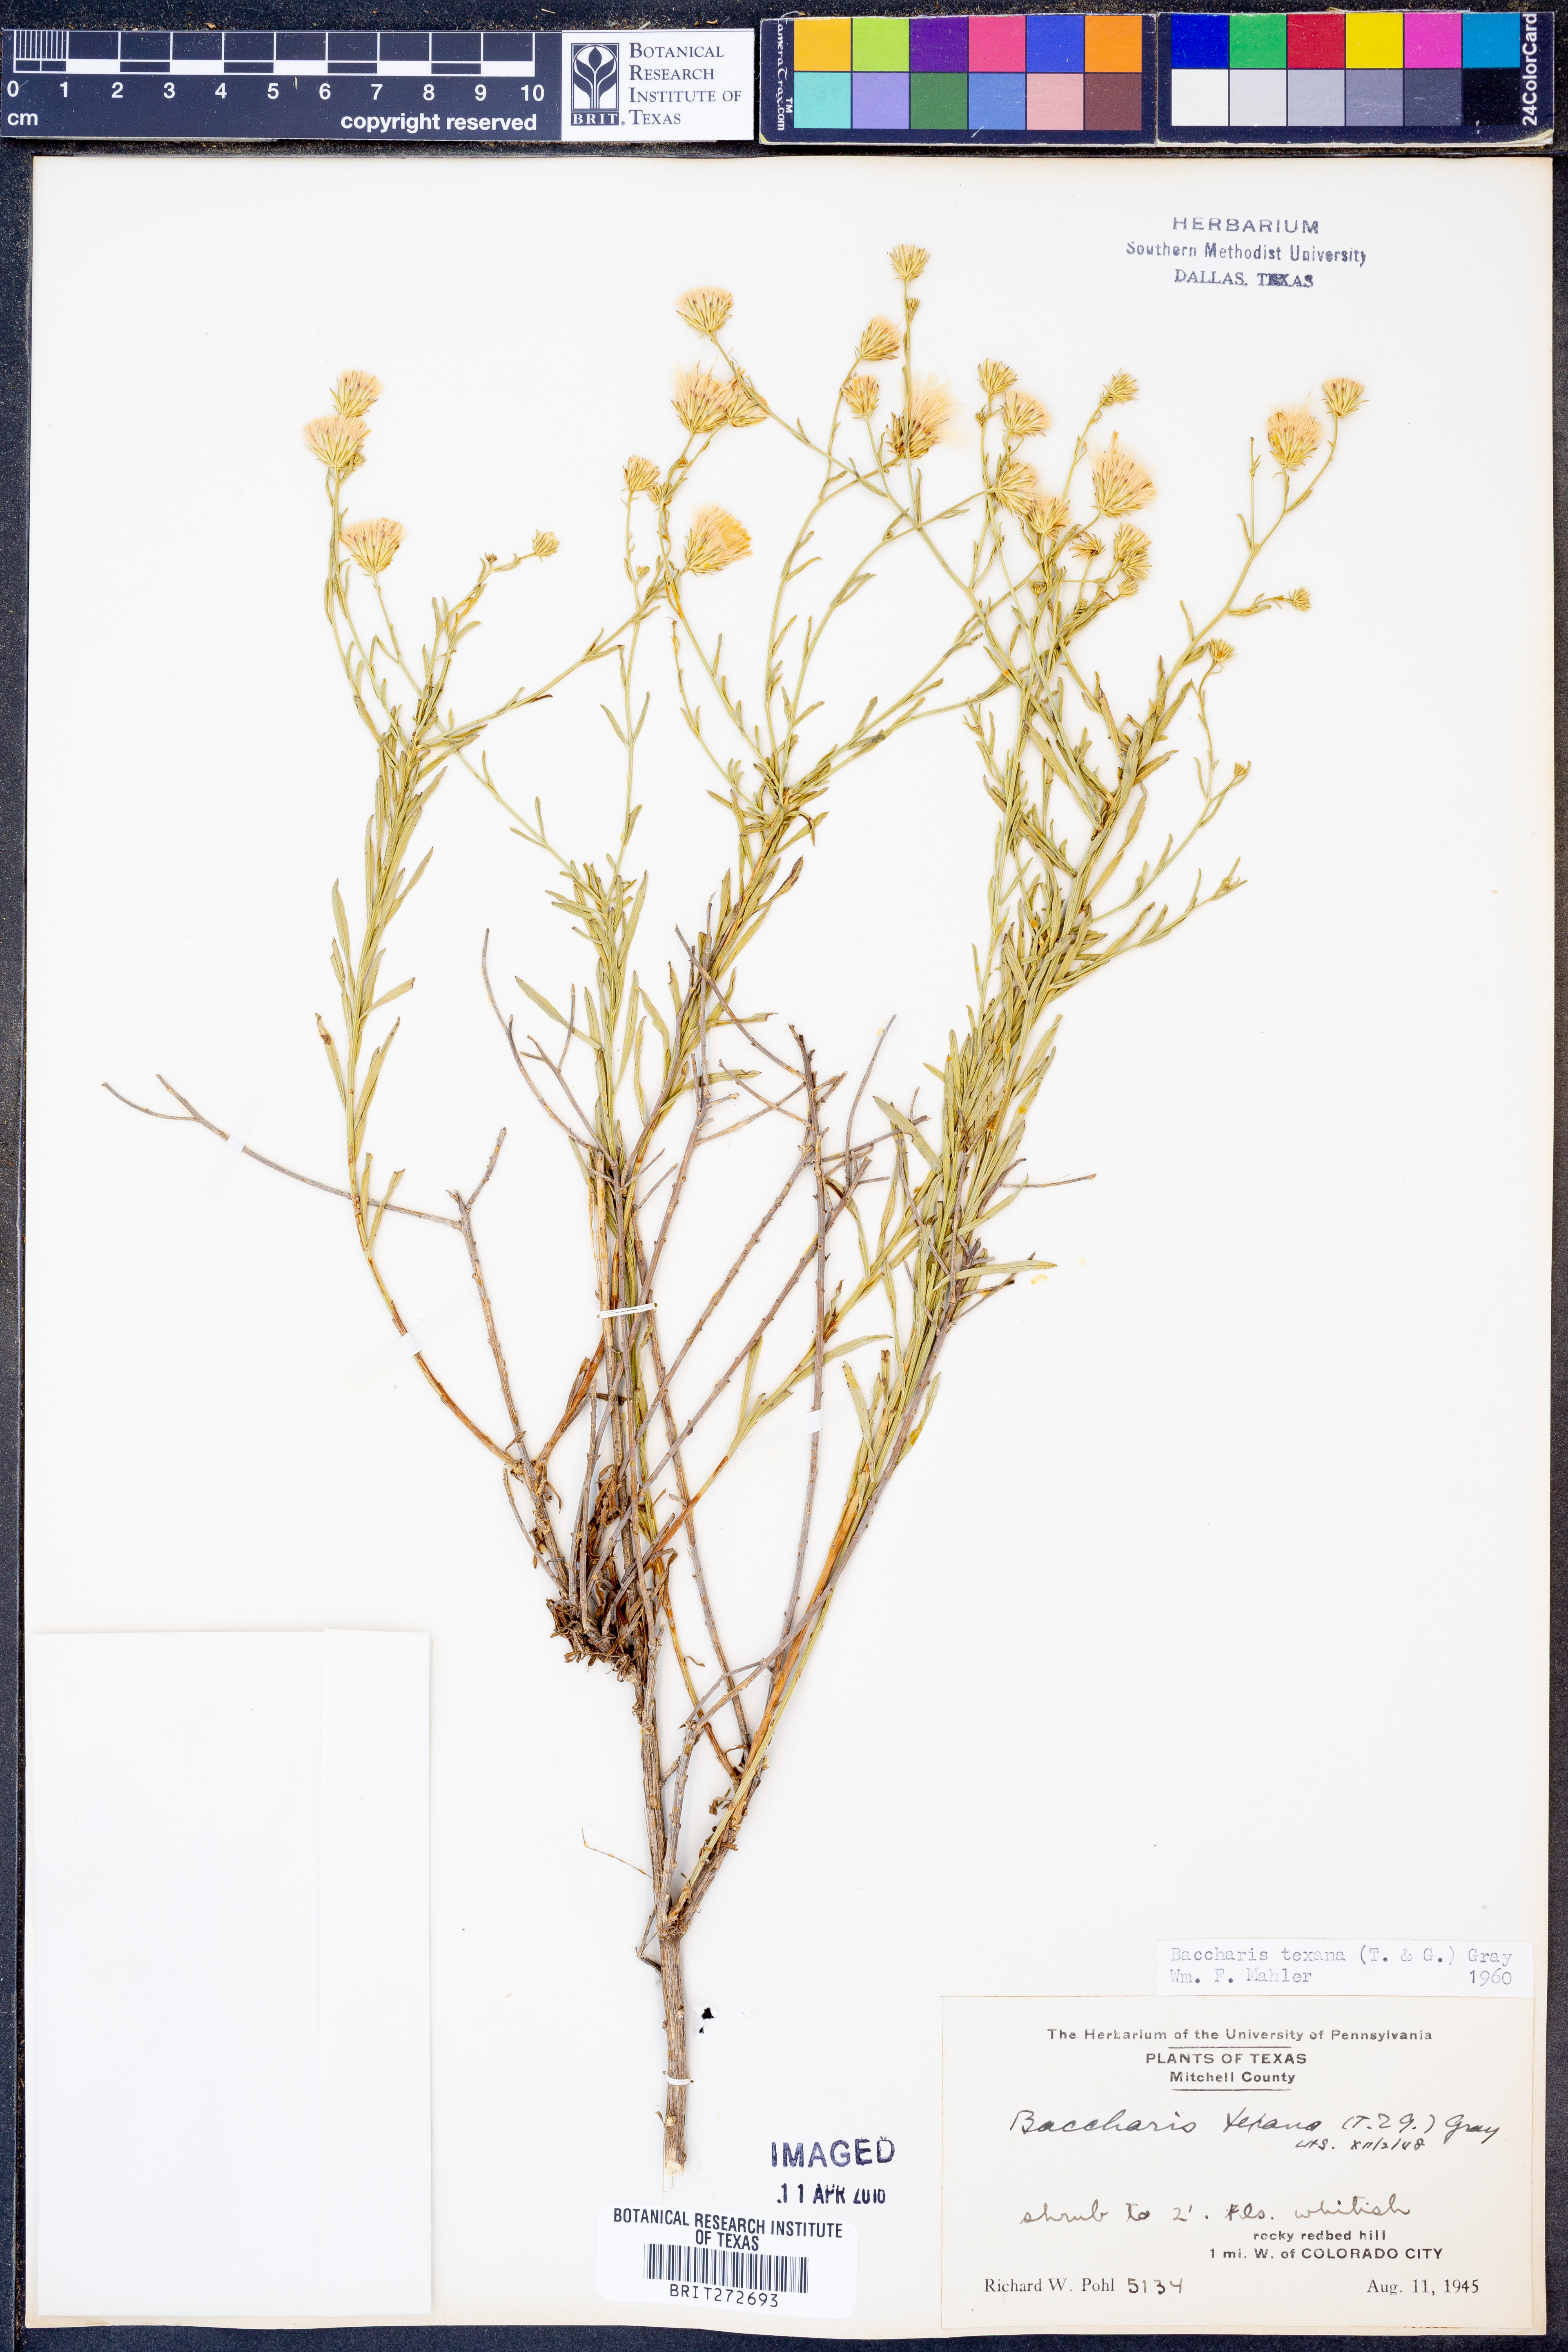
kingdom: Plantae
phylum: Tracheophyta
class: Magnoliopsida
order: Asterales
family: Asteraceae
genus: Baccharis
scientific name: Baccharis texana
